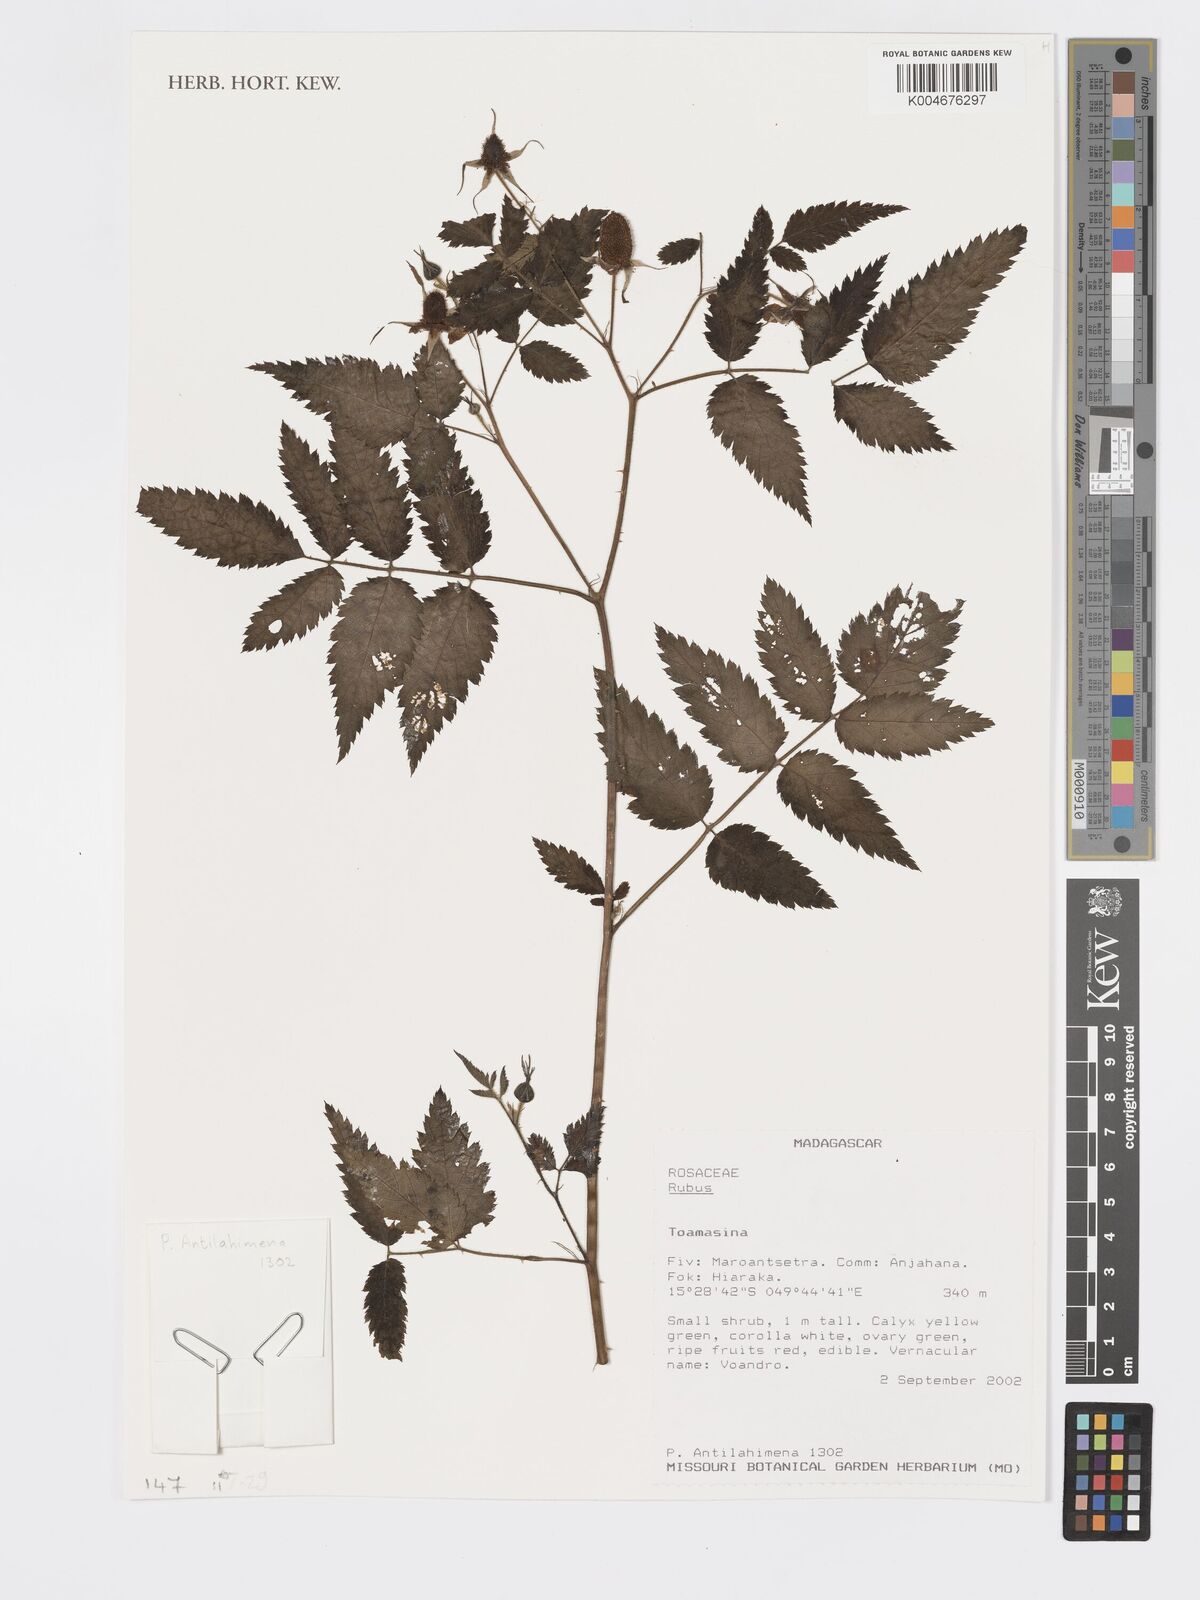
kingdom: Plantae
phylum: Tracheophyta
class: Magnoliopsida
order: Rosales
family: Rosaceae
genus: Rubus
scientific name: Rubus
